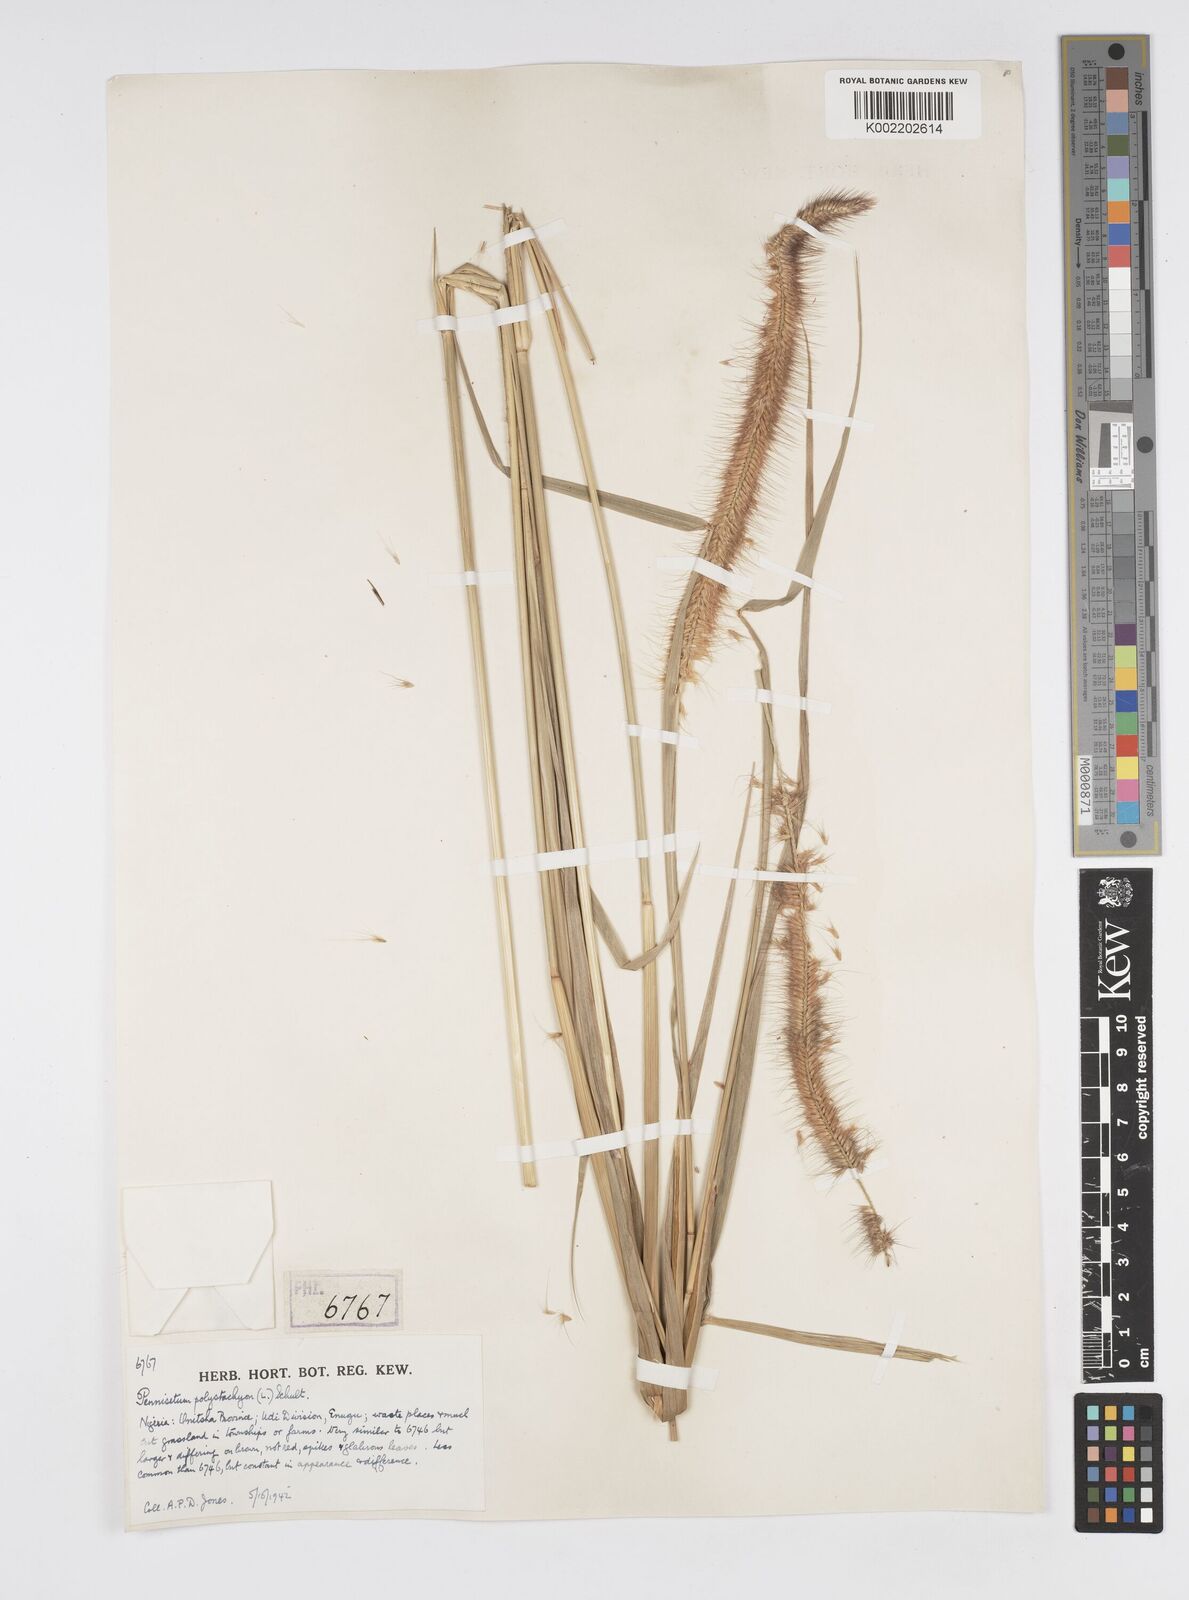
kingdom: Plantae
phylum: Tracheophyta
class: Liliopsida
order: Poales
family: Poaceae
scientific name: Poaceae
